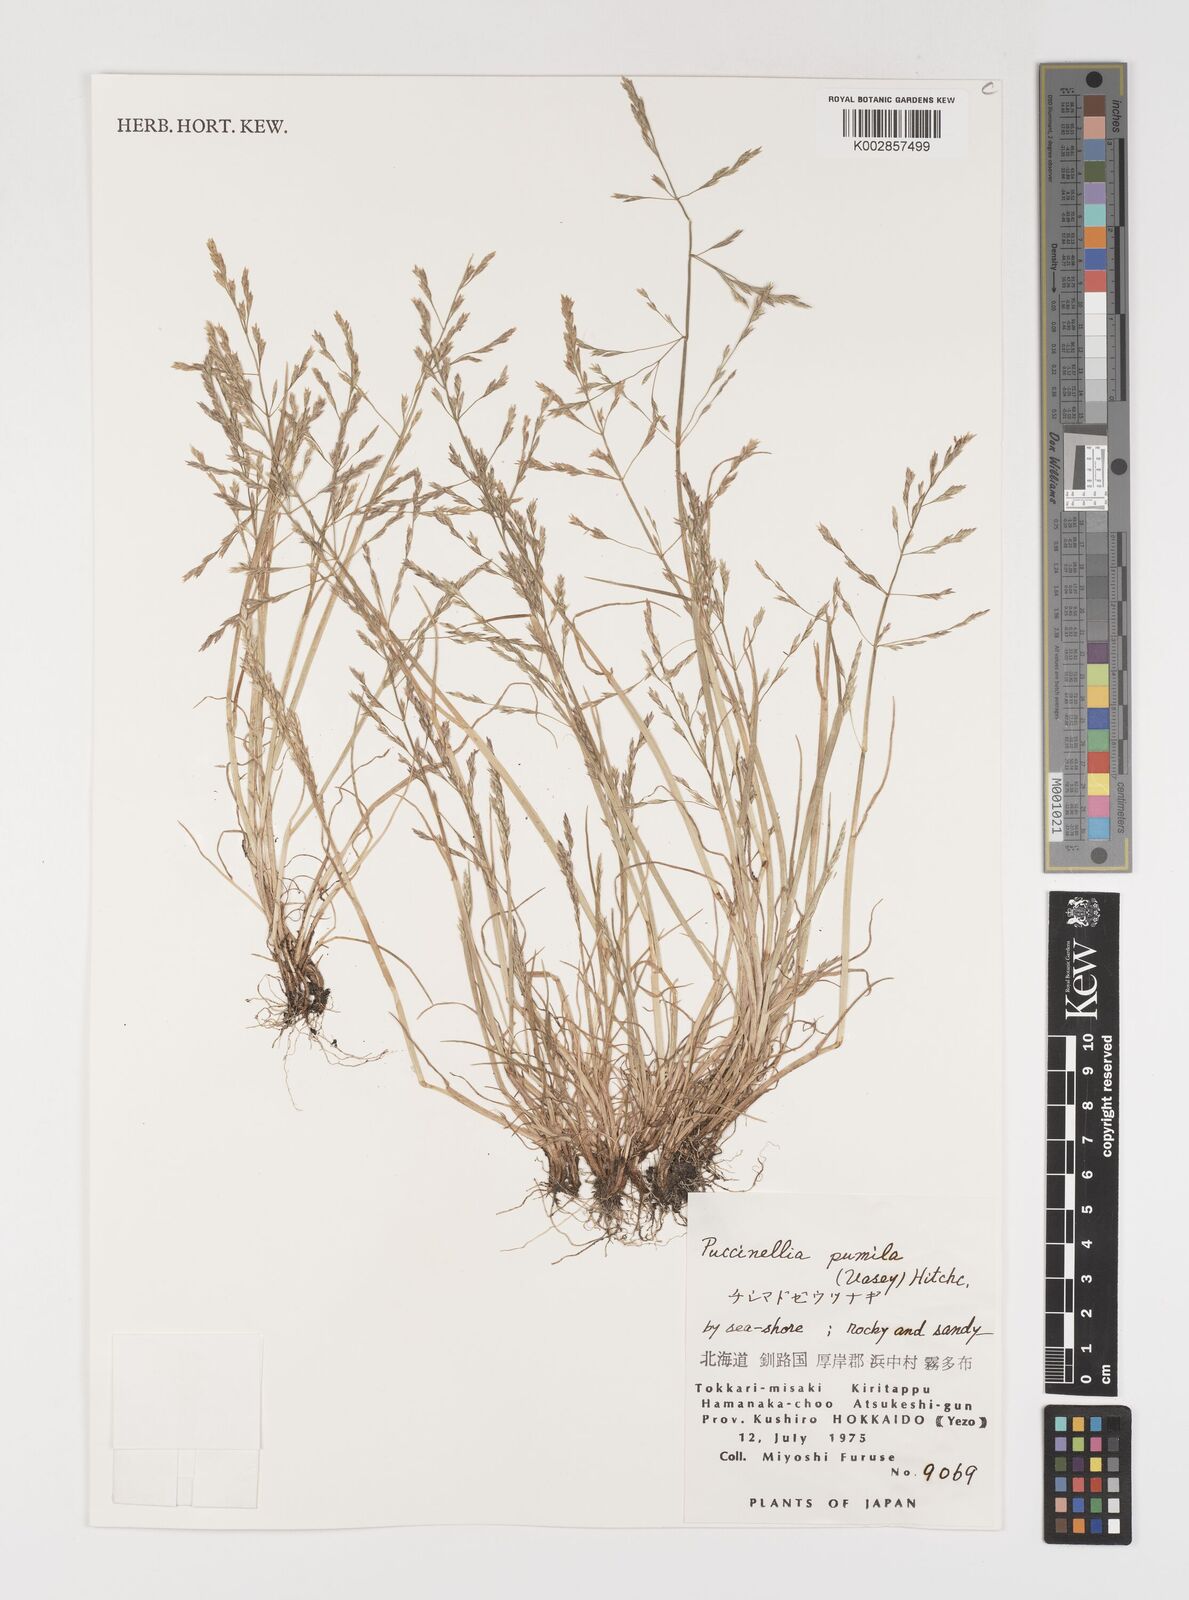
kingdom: Plantae
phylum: Tracheophyta
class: Liliopsida
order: Poales
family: Poaceae
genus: Puccinellia
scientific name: Puccinellia pumila
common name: Dwarf alkaligrass
